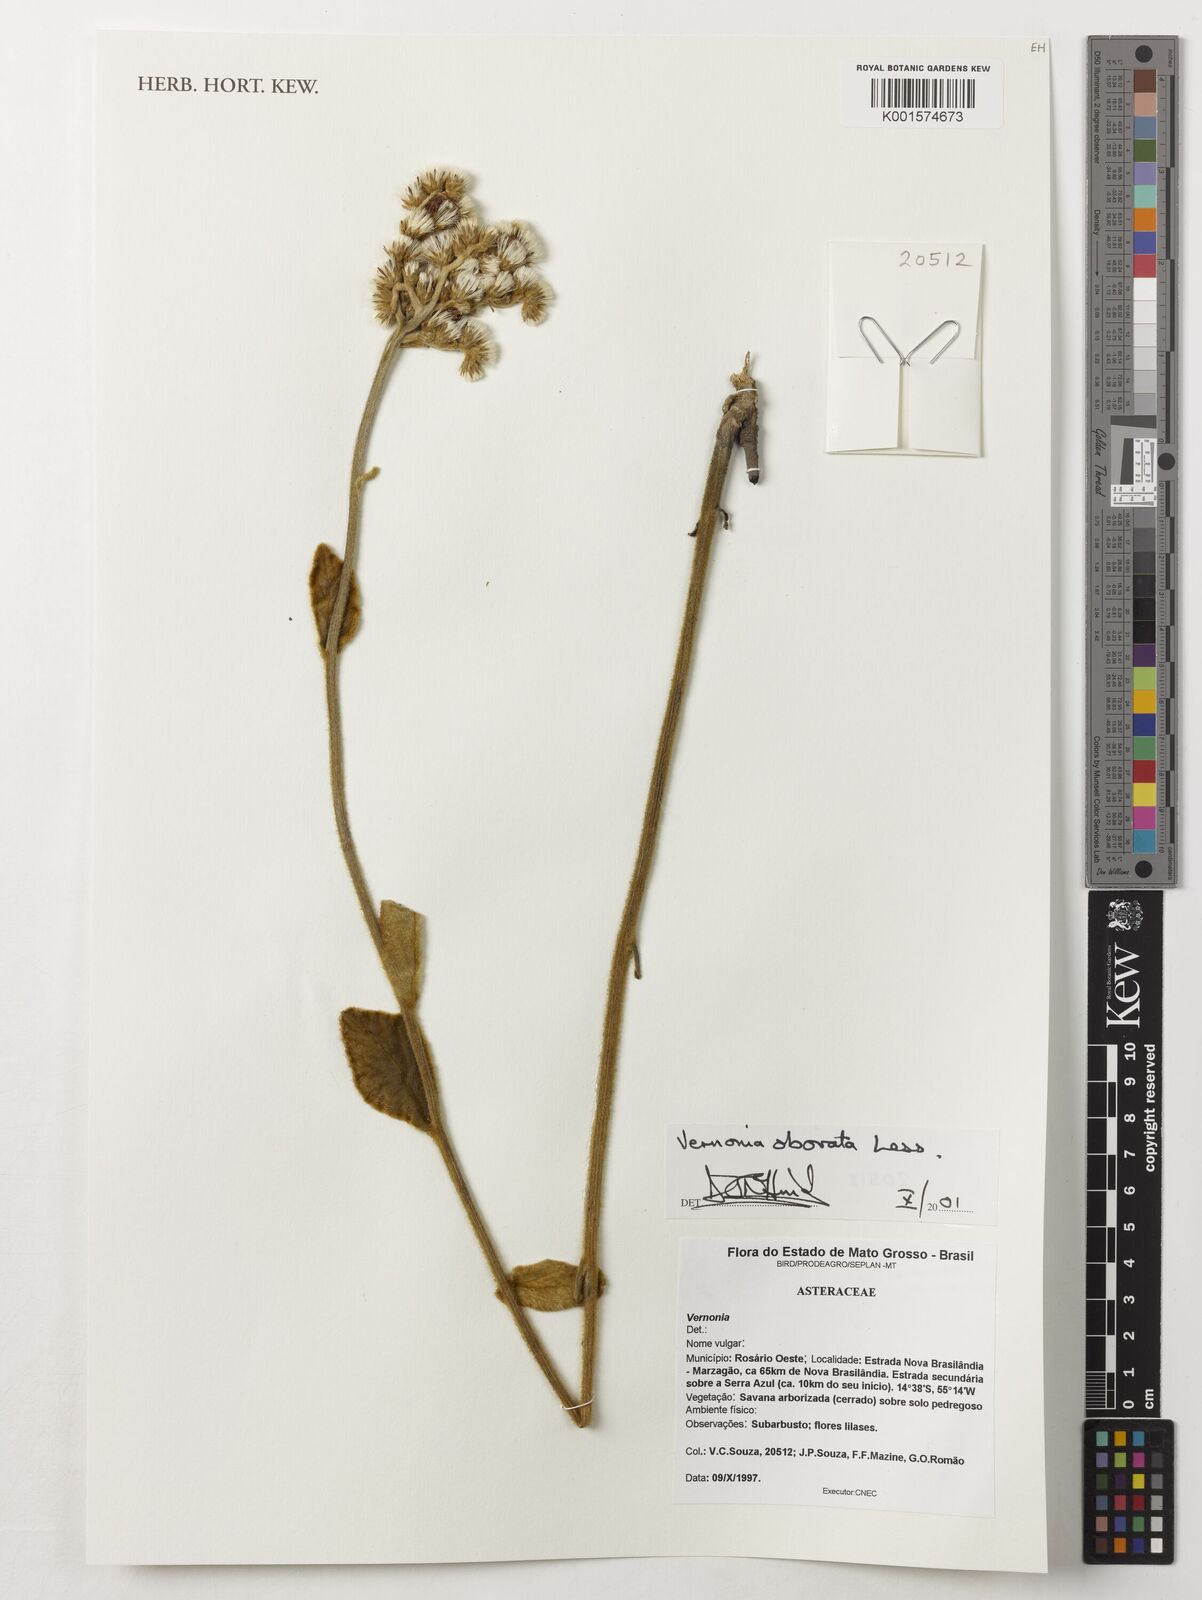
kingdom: Plantae
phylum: Tracheophyta
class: Magnoliopsida
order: Asterales
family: Asteraceae
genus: Chrysolaena
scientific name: Chrysolaena obovata
